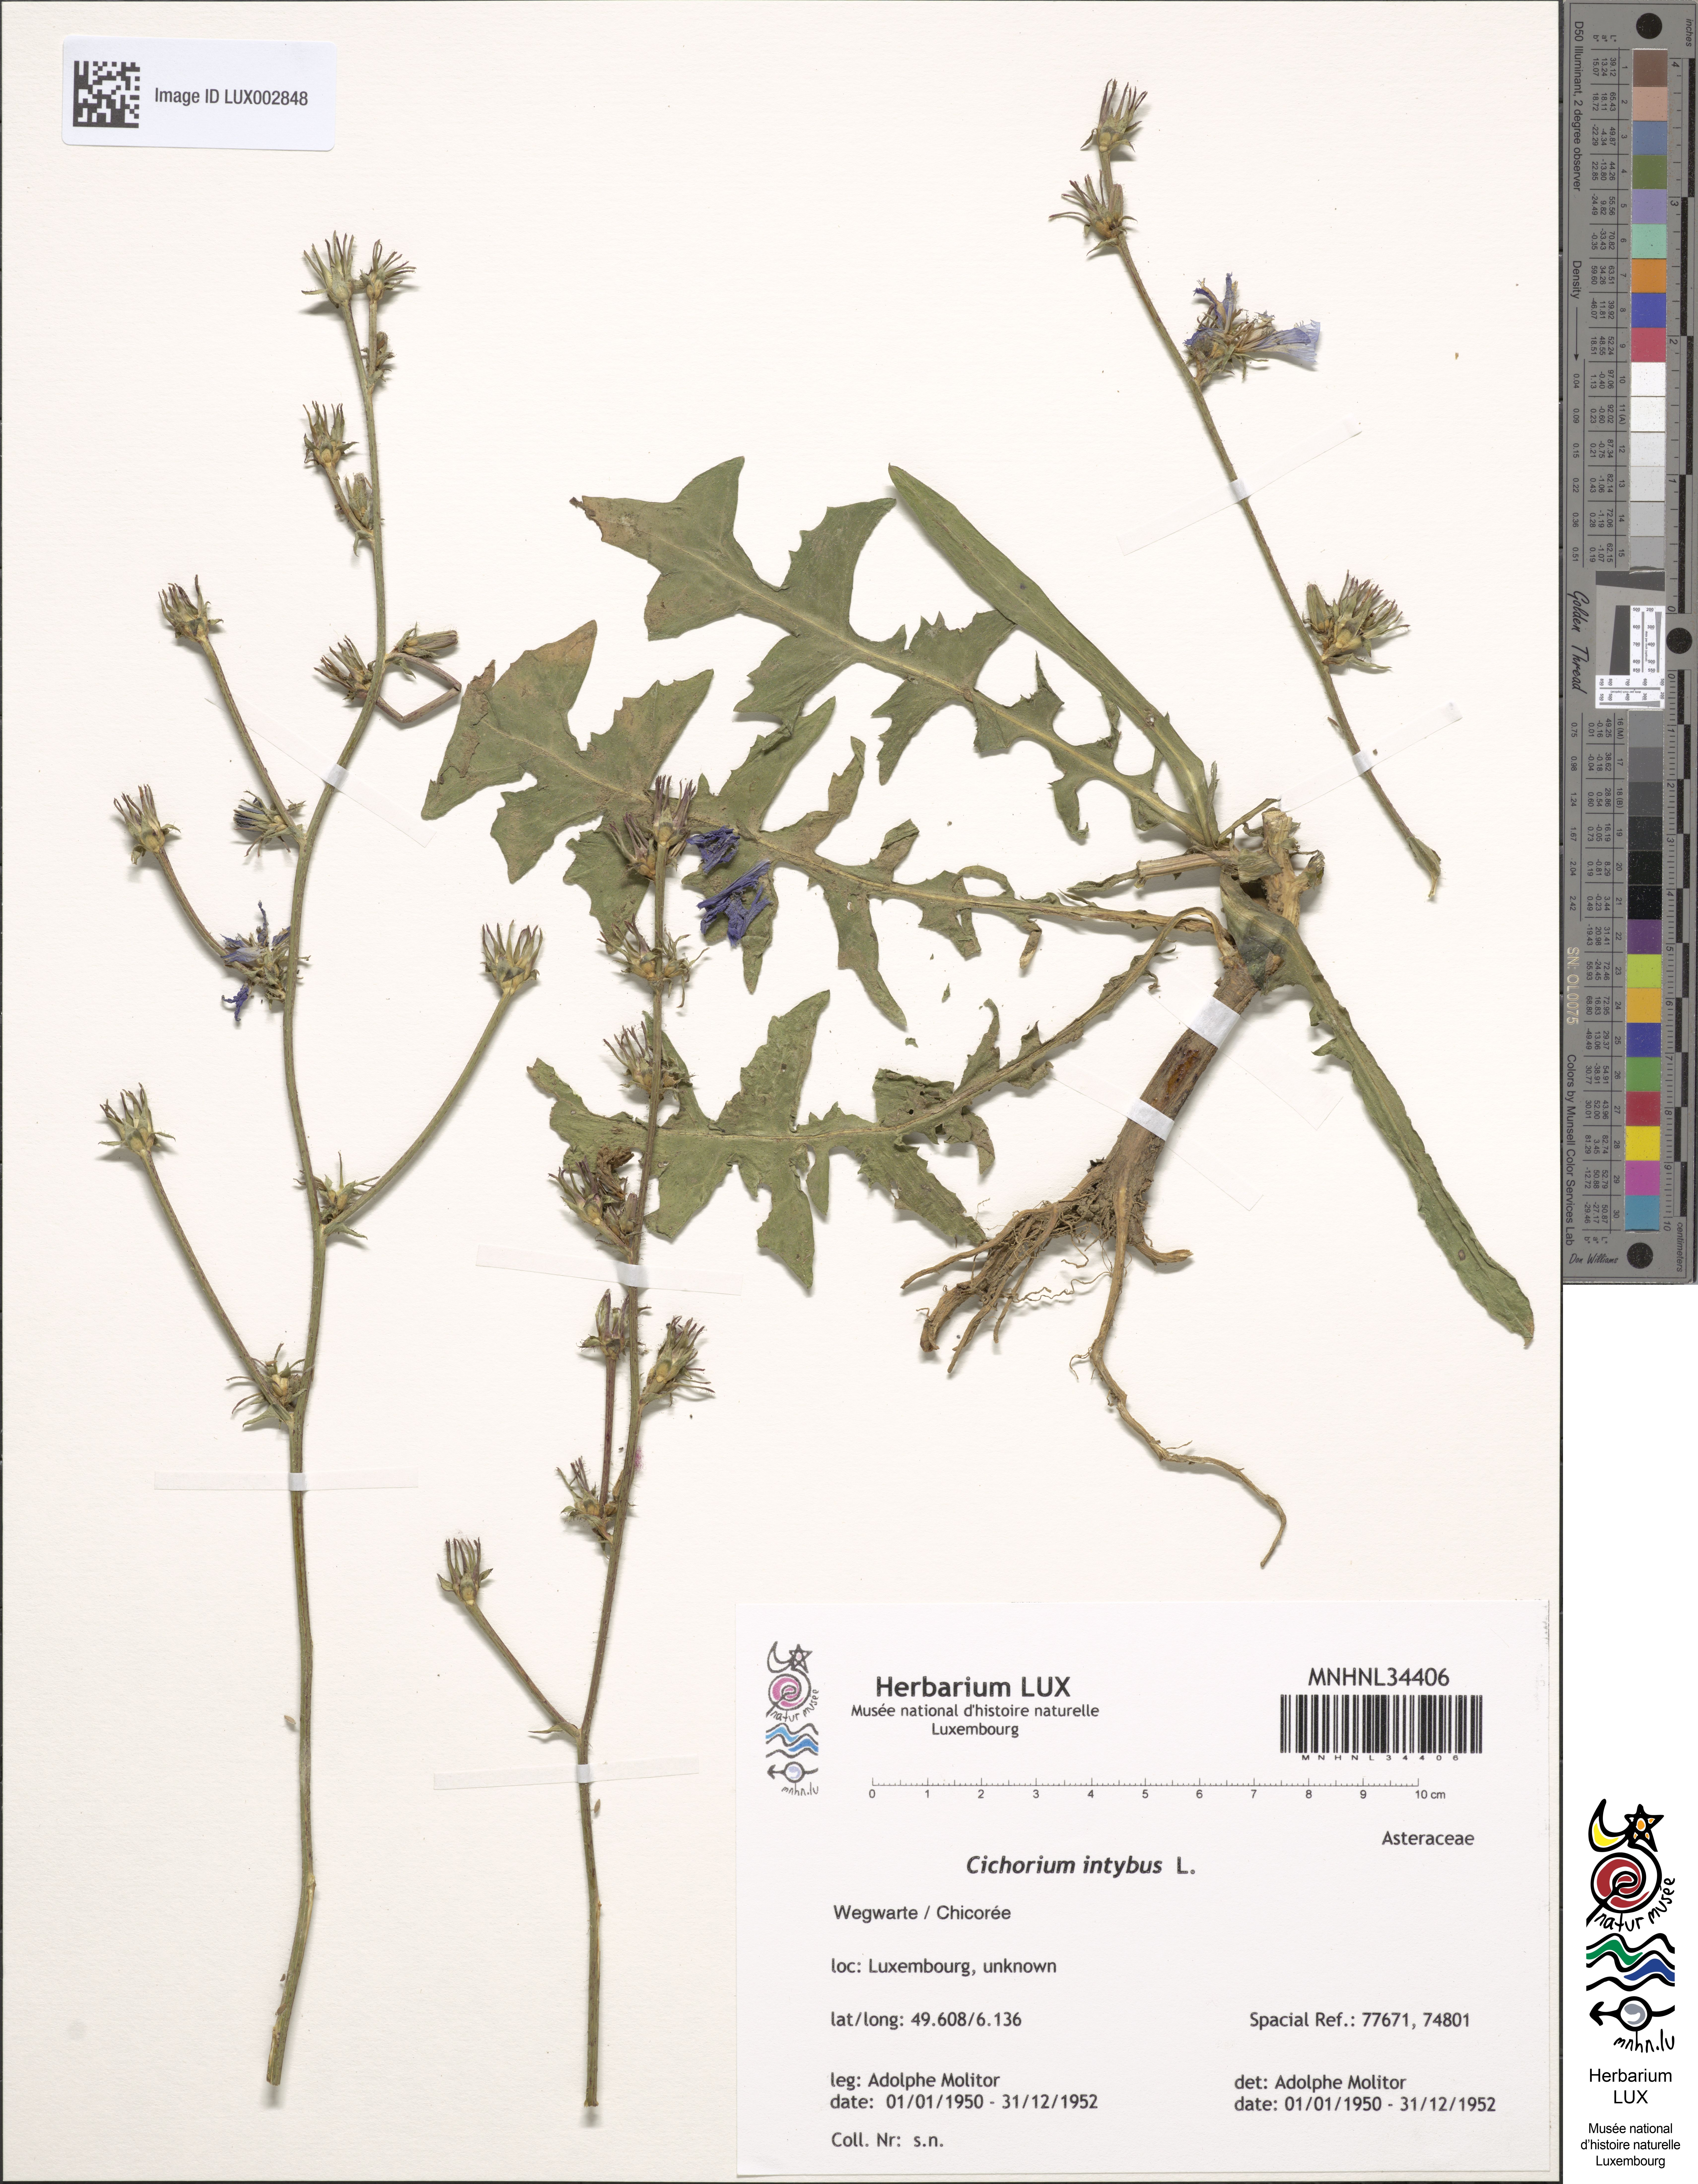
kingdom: Plantae
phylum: Tracheophyta
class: Magnoliopsida
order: Asterales
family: Asteraceae
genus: Cichorium
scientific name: Cichorium intybus
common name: Chicory
